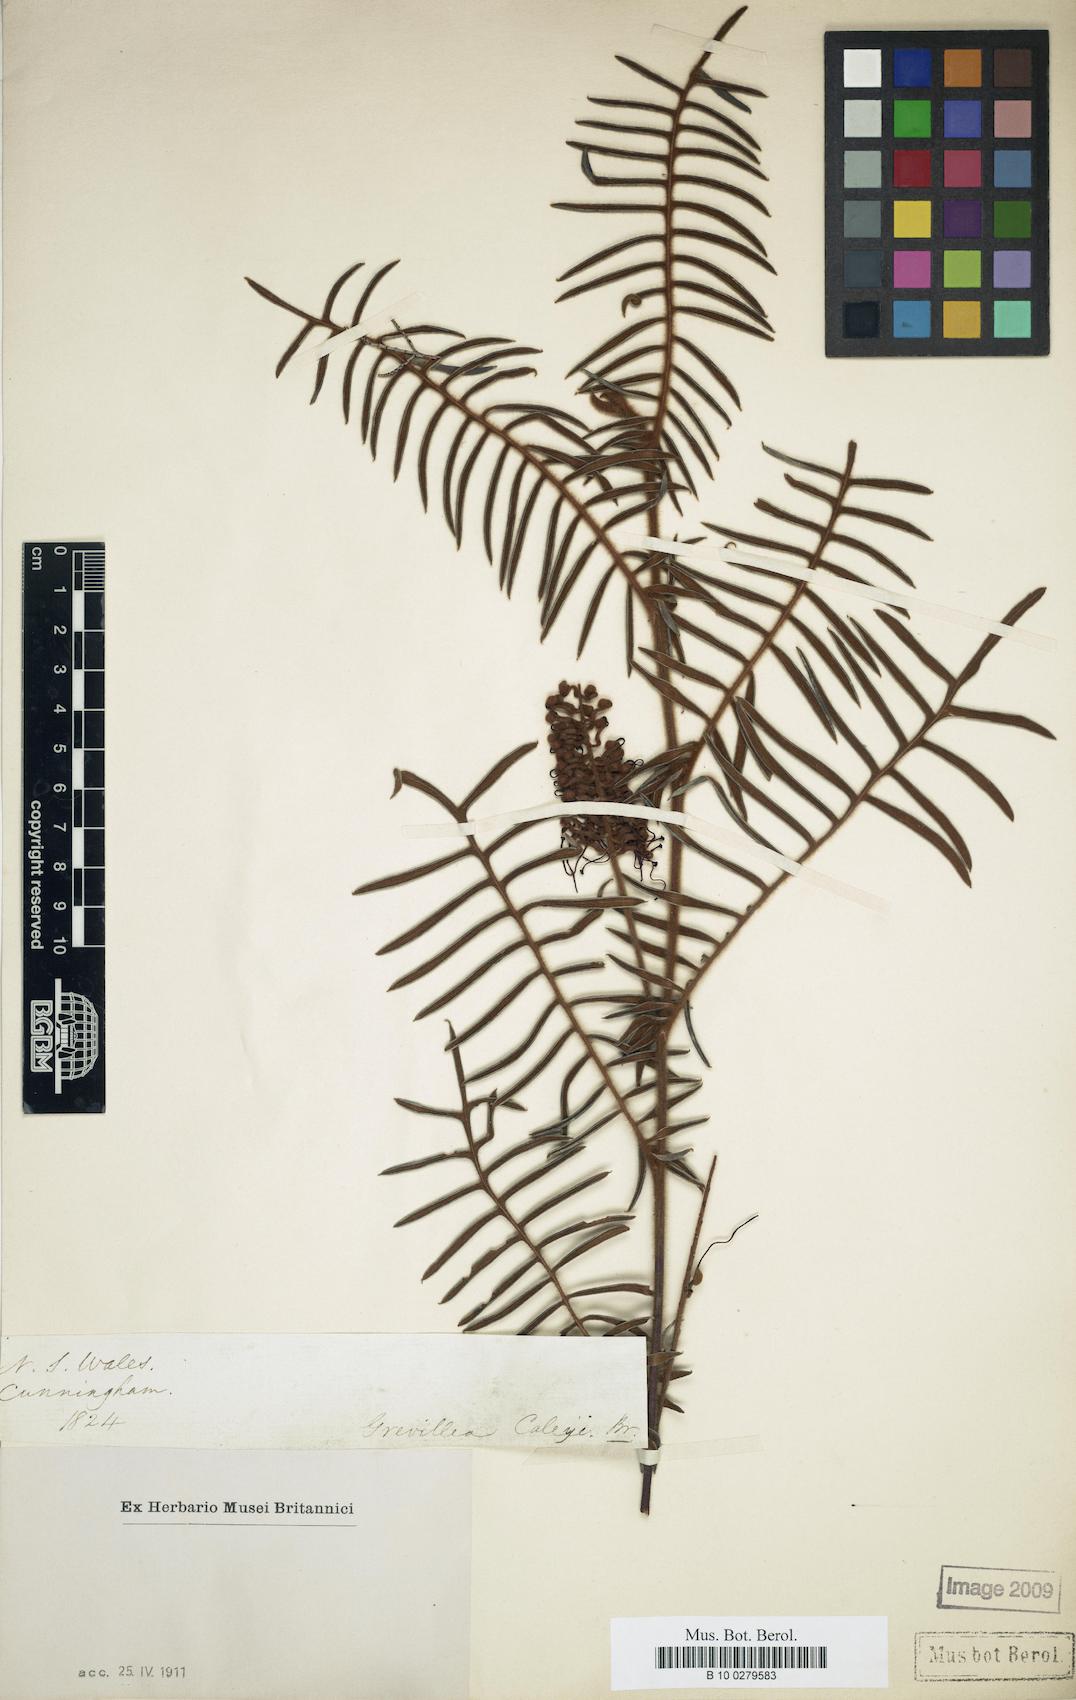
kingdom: Plantae
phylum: Tracheophyta
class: Magnoliopsida
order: Proteales
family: Proteaceae
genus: Grevillea
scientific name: Grevillea caleyi
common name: Caley's grevillea
